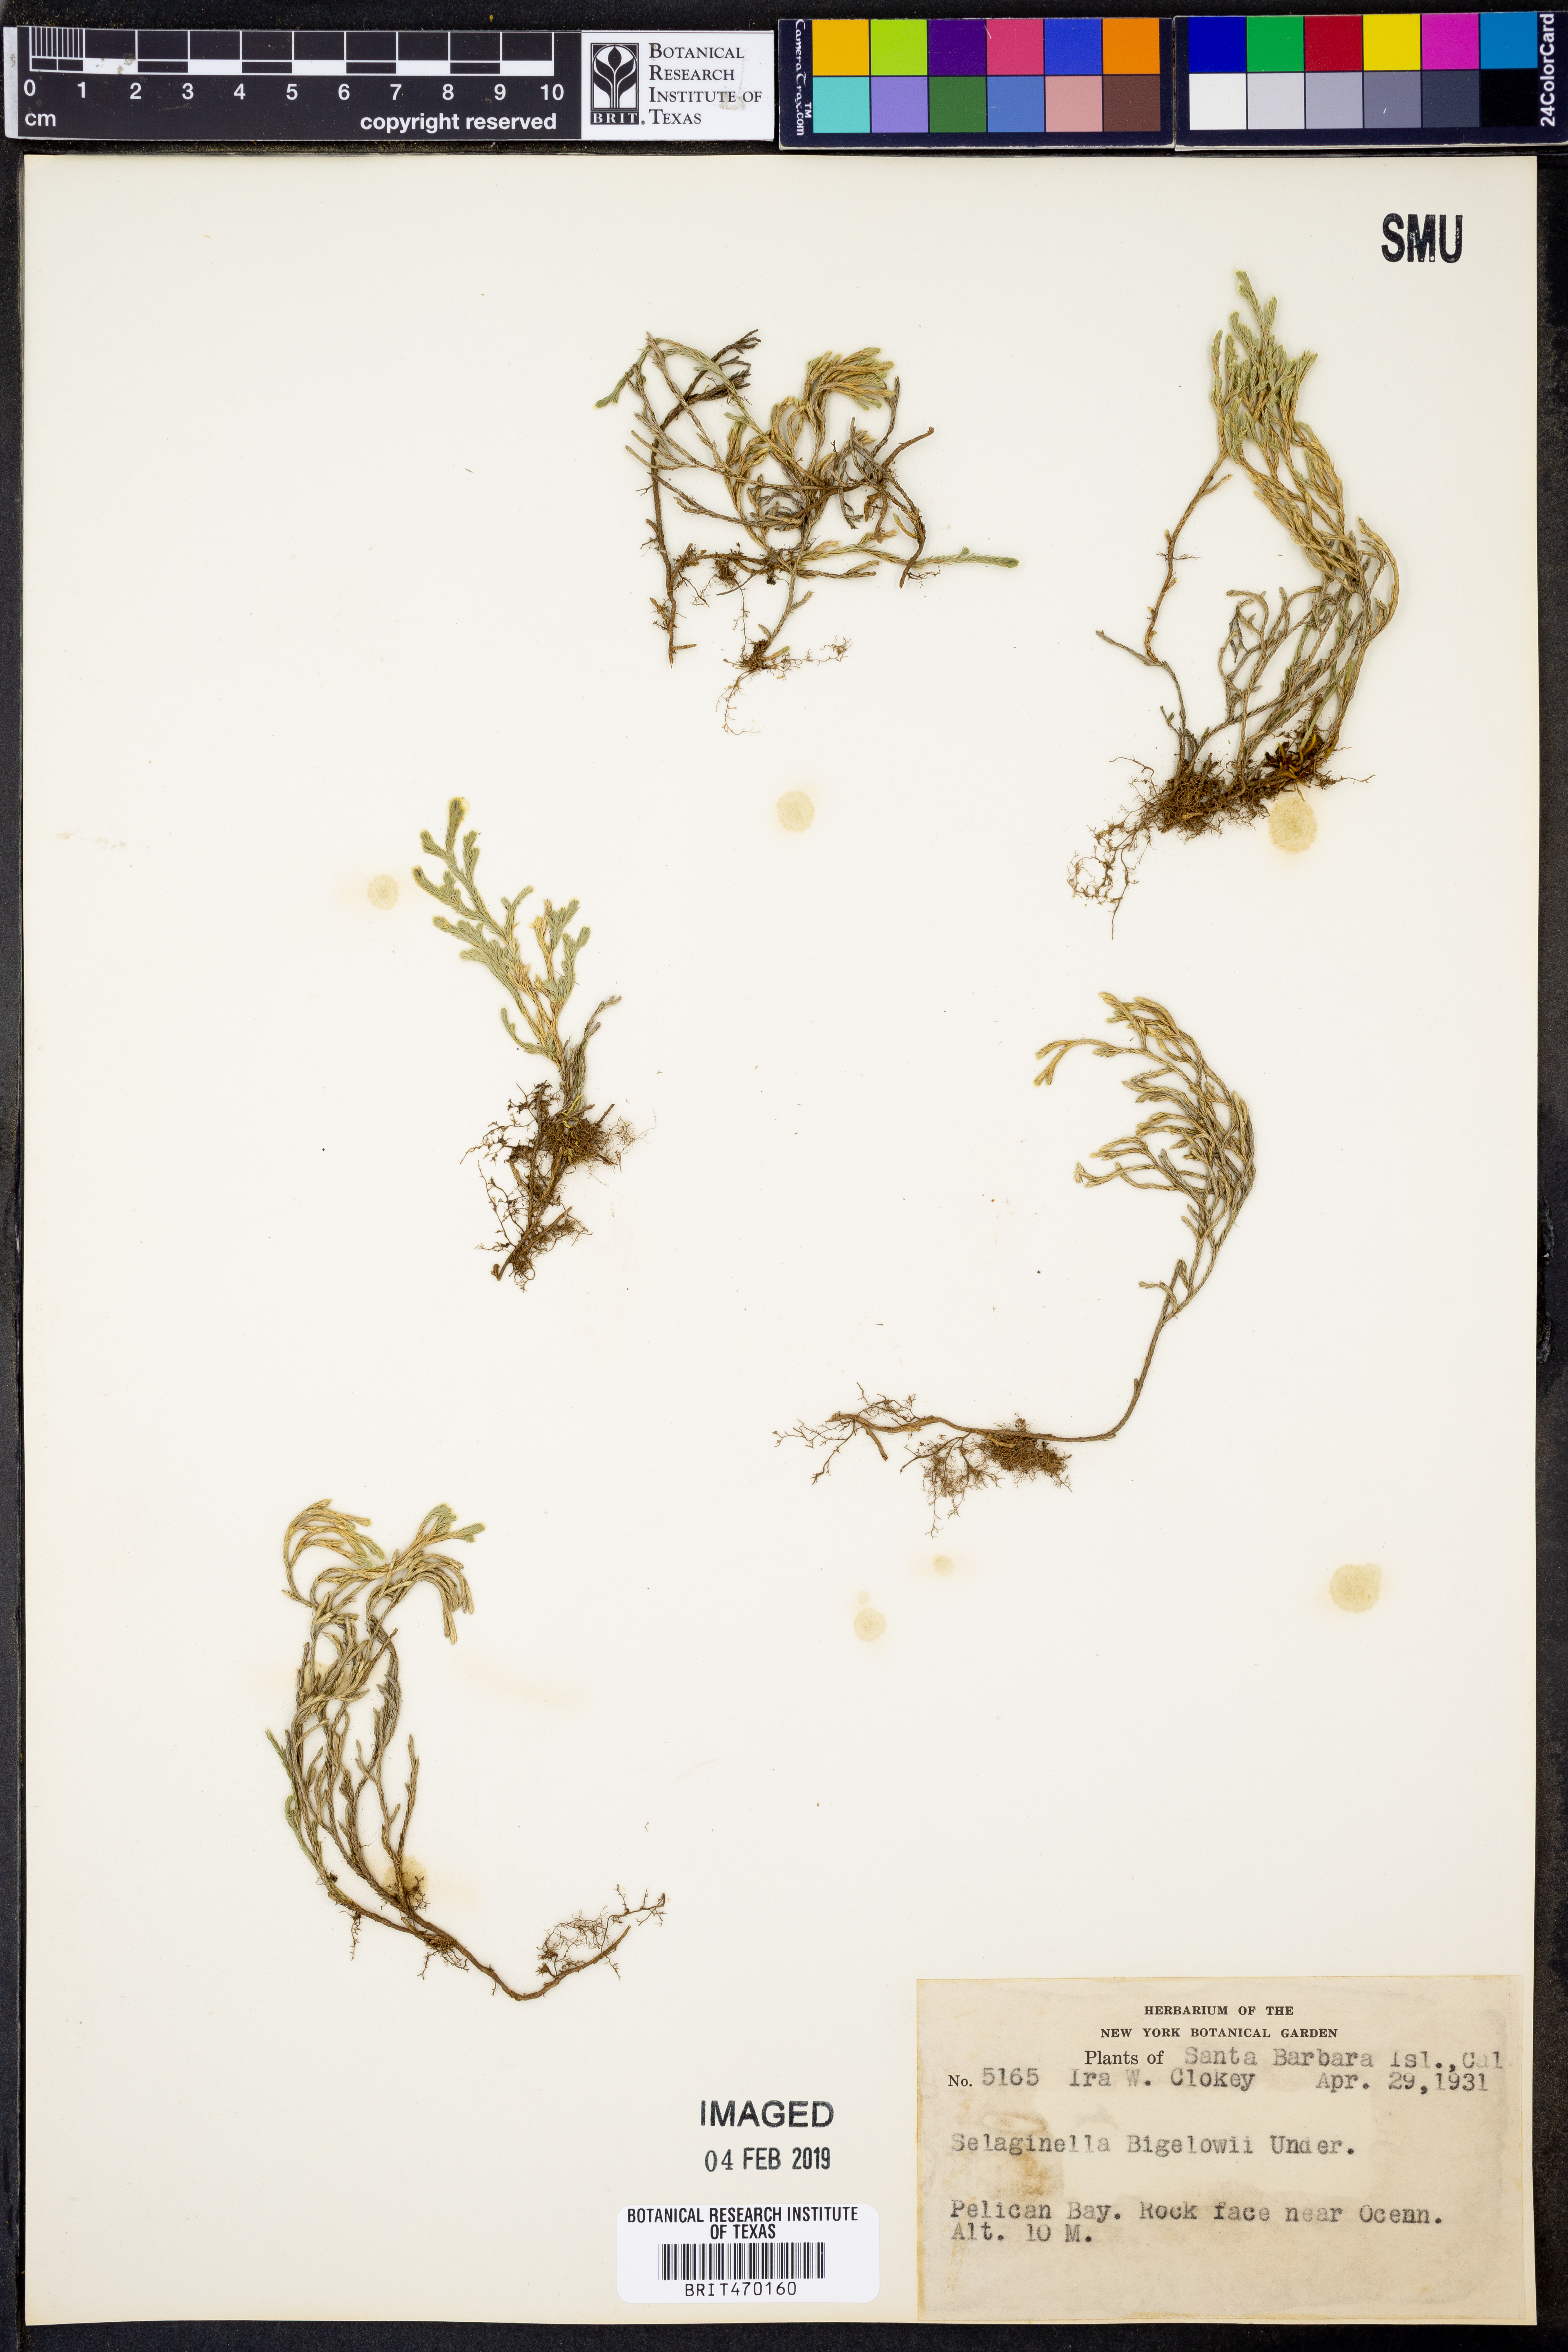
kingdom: Plantae
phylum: Tracheophyta
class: Lycopodiopsida
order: Selaginellales
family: Selaginellaceae
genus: Selaginella
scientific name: Selaginella bigelovii
